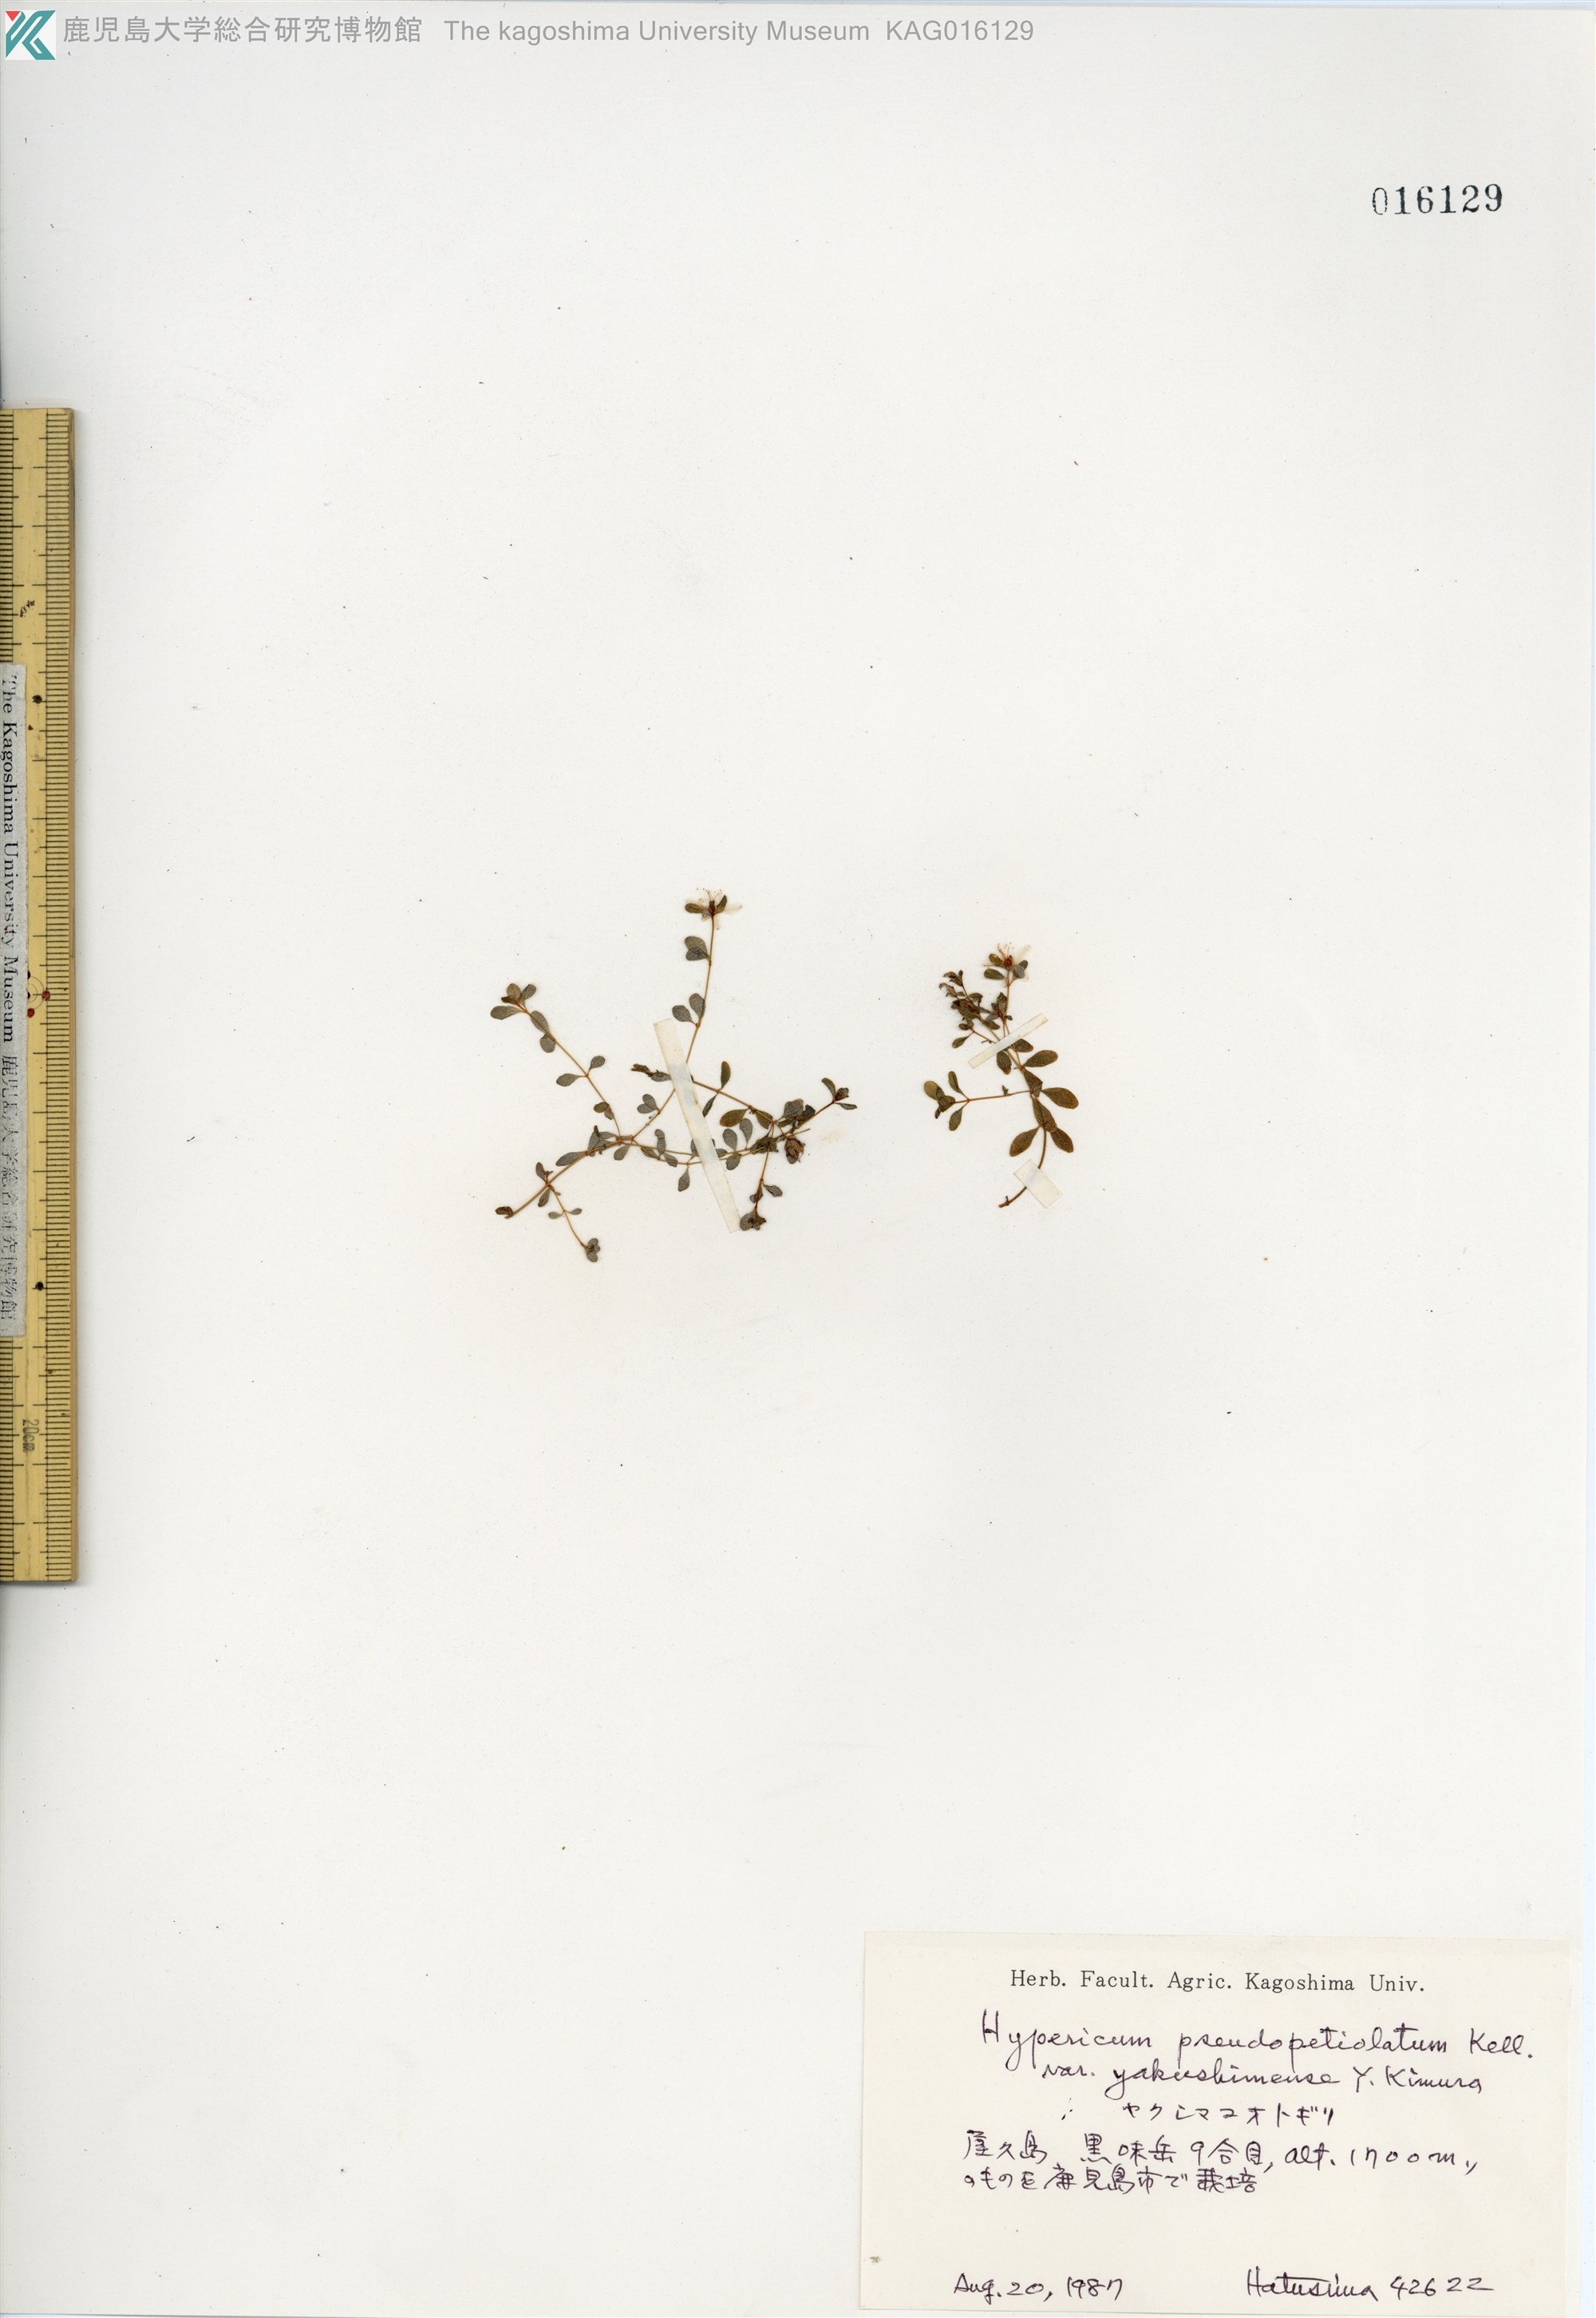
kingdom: Plantae
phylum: Tracheophyta
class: Magnoliopsida
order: Malpighiales
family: Hypericaceae
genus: Hypericum
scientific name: Hypericum pseudopetiolatum
